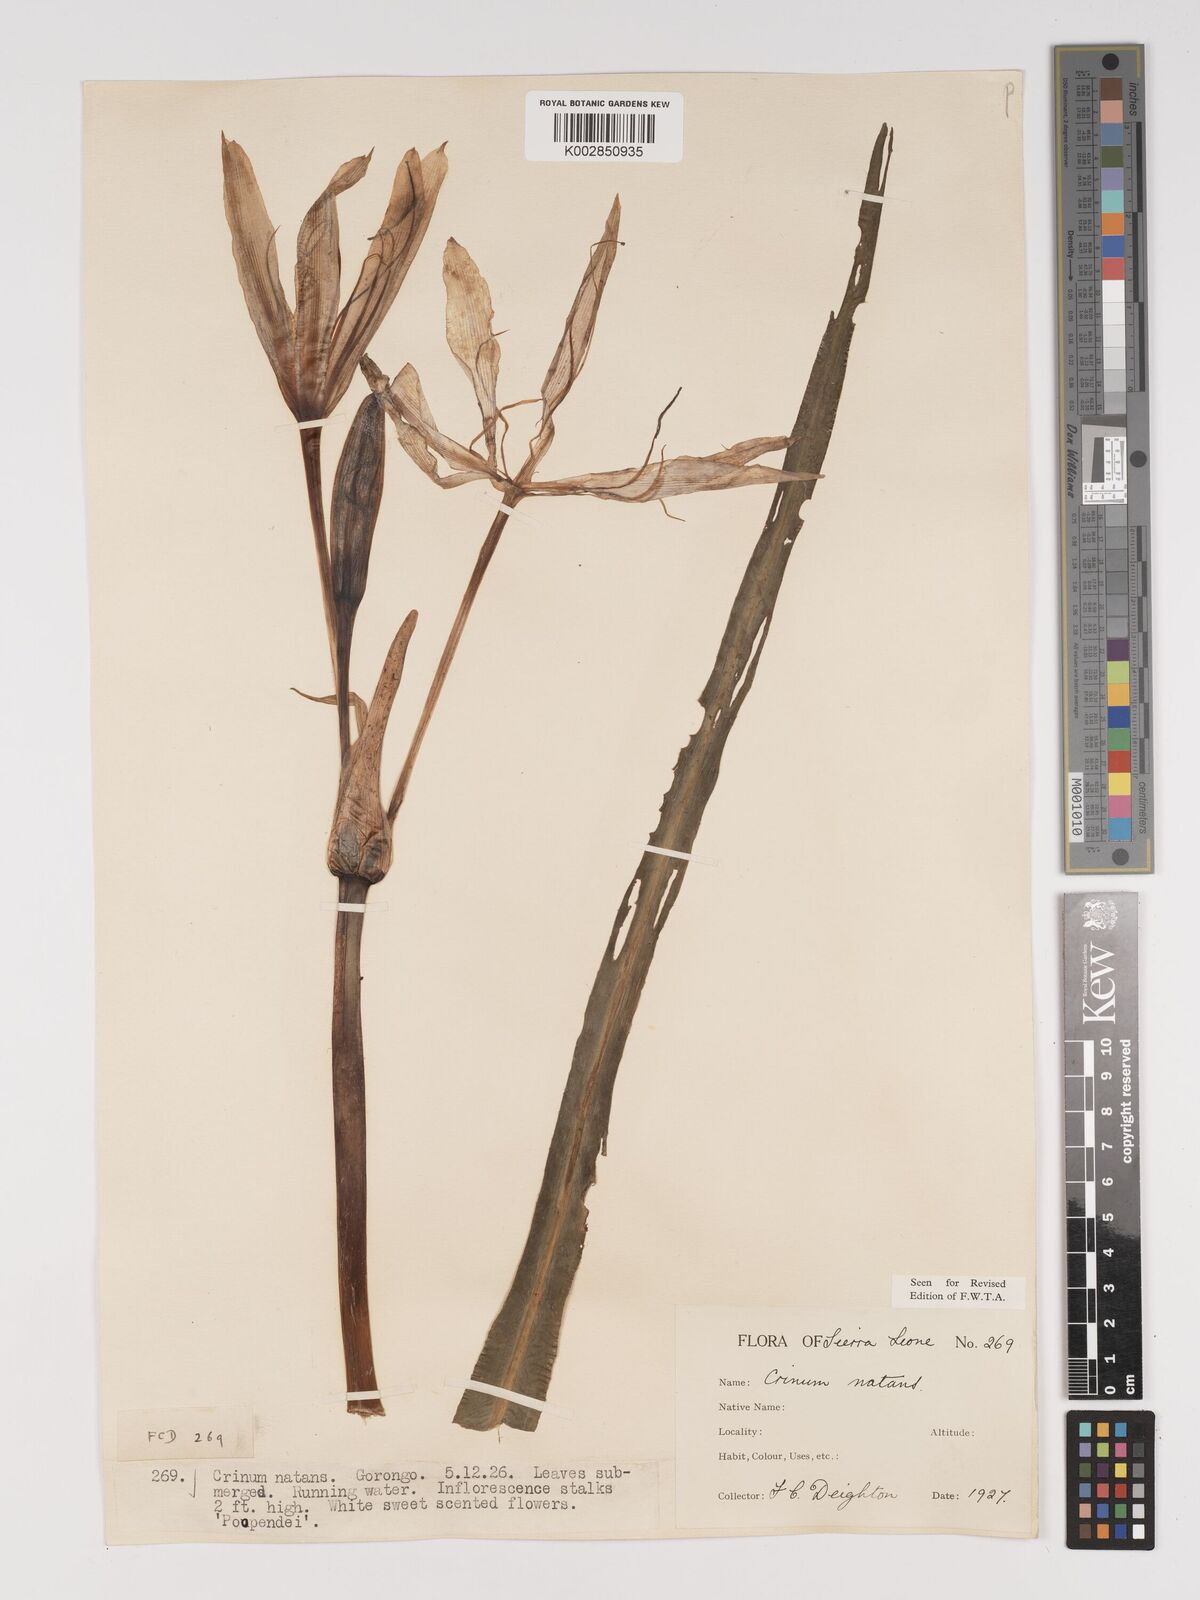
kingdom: Plantae
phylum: Tracheophyta
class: Liliopsida
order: Asparagales
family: Amaryllidaceae
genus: Crinum
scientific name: Crinum natans
